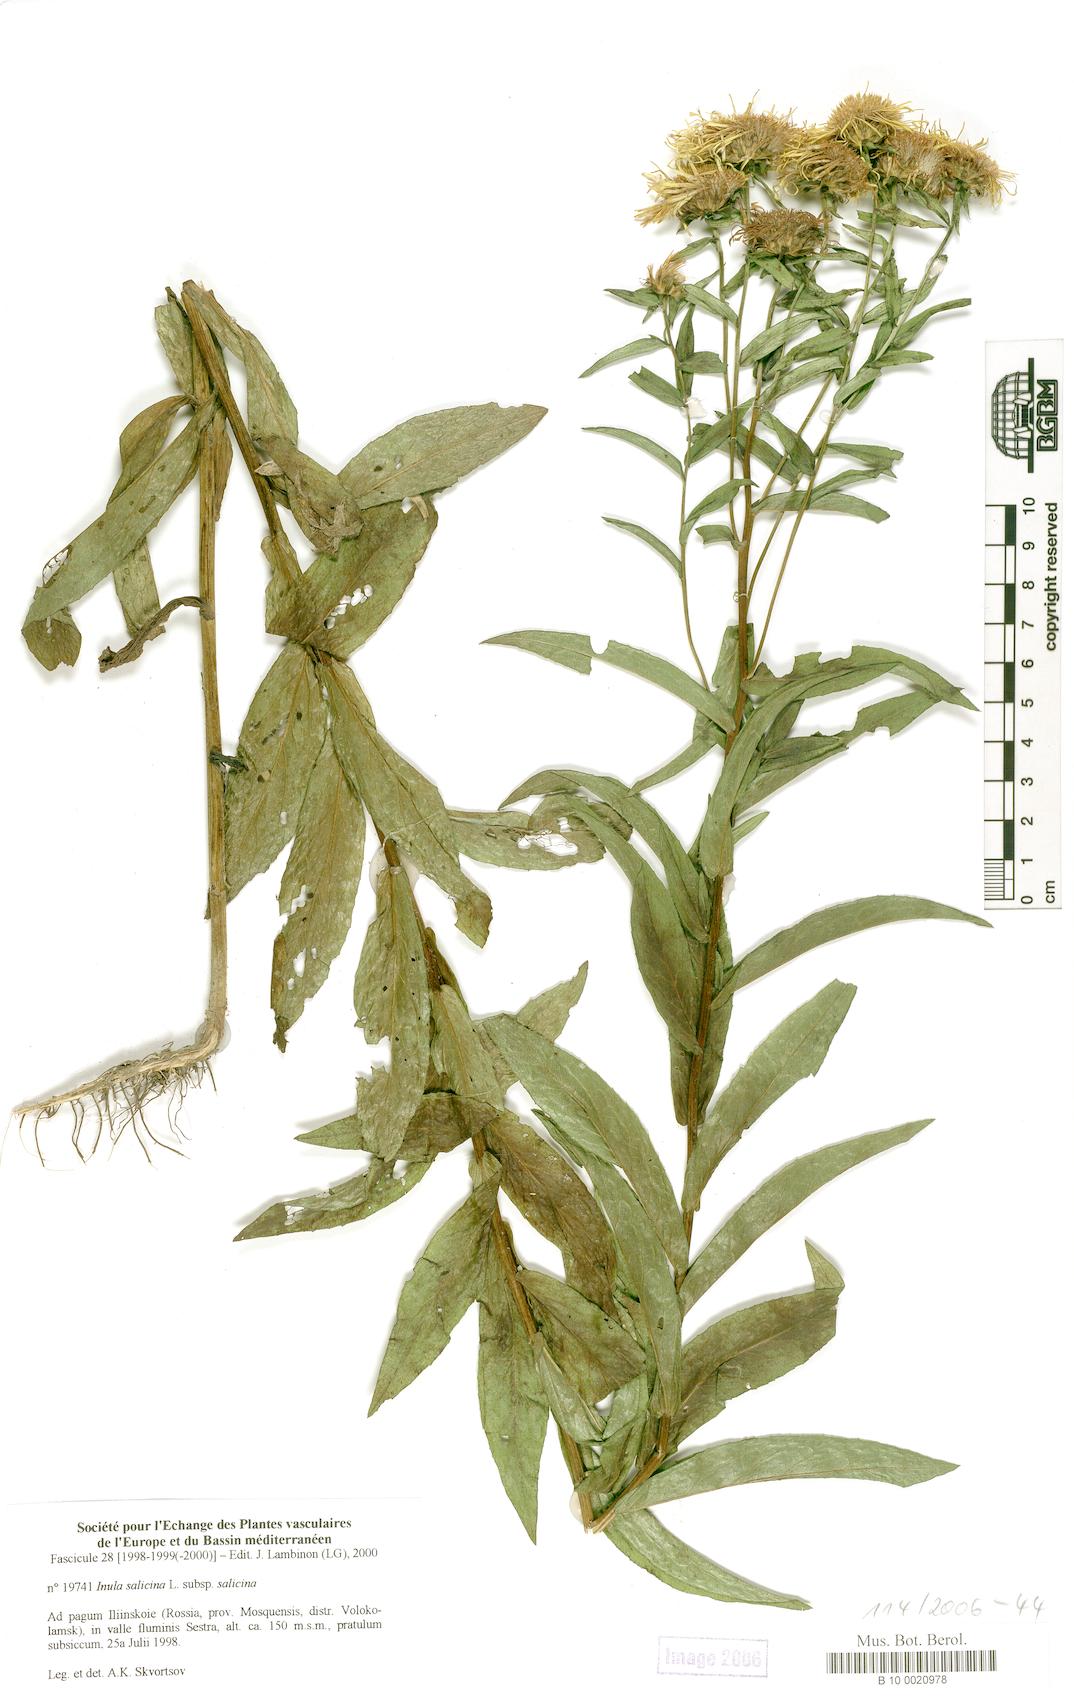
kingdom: Plantae
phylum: Tracheophyta
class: Magnoliopsida
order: Asterales
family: Asteraceae
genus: Pentanema
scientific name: Pentanema salicinum
